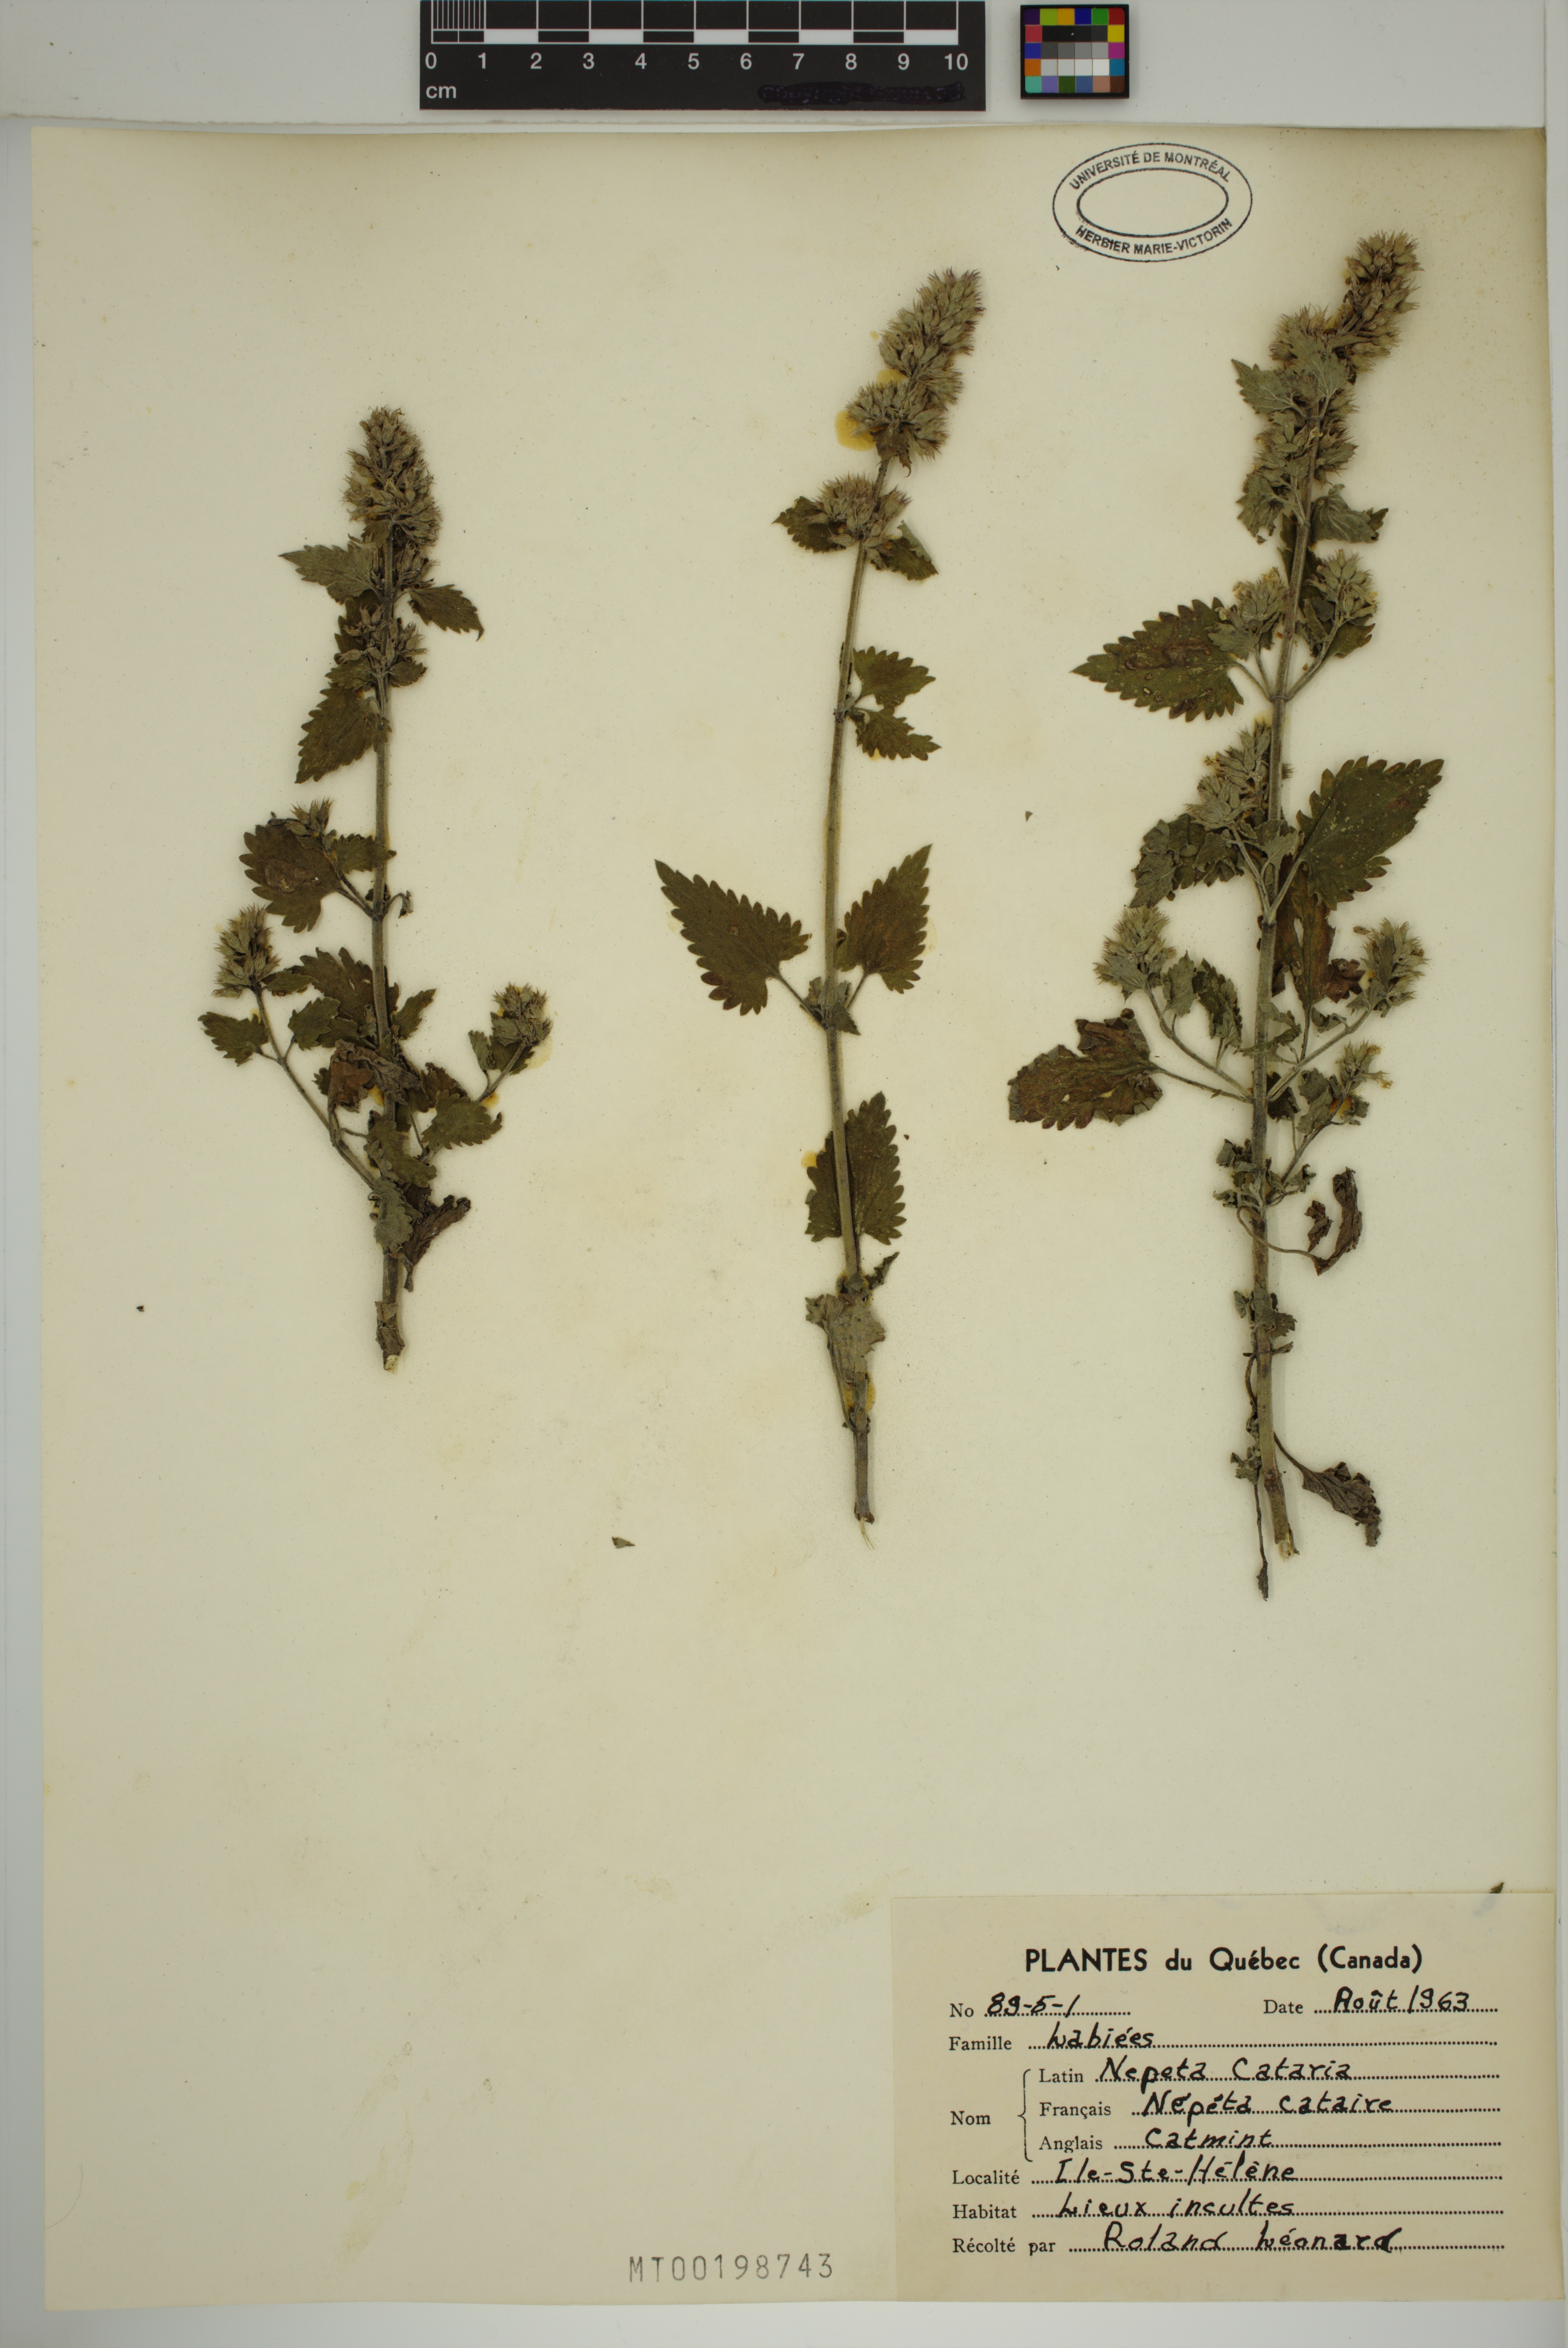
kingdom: Plantae
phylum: Tracheophyta
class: Magnoliopsida
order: Lamiales
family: Lamiaceae
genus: Nepeta
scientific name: Nepeta cataria
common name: Catnip
